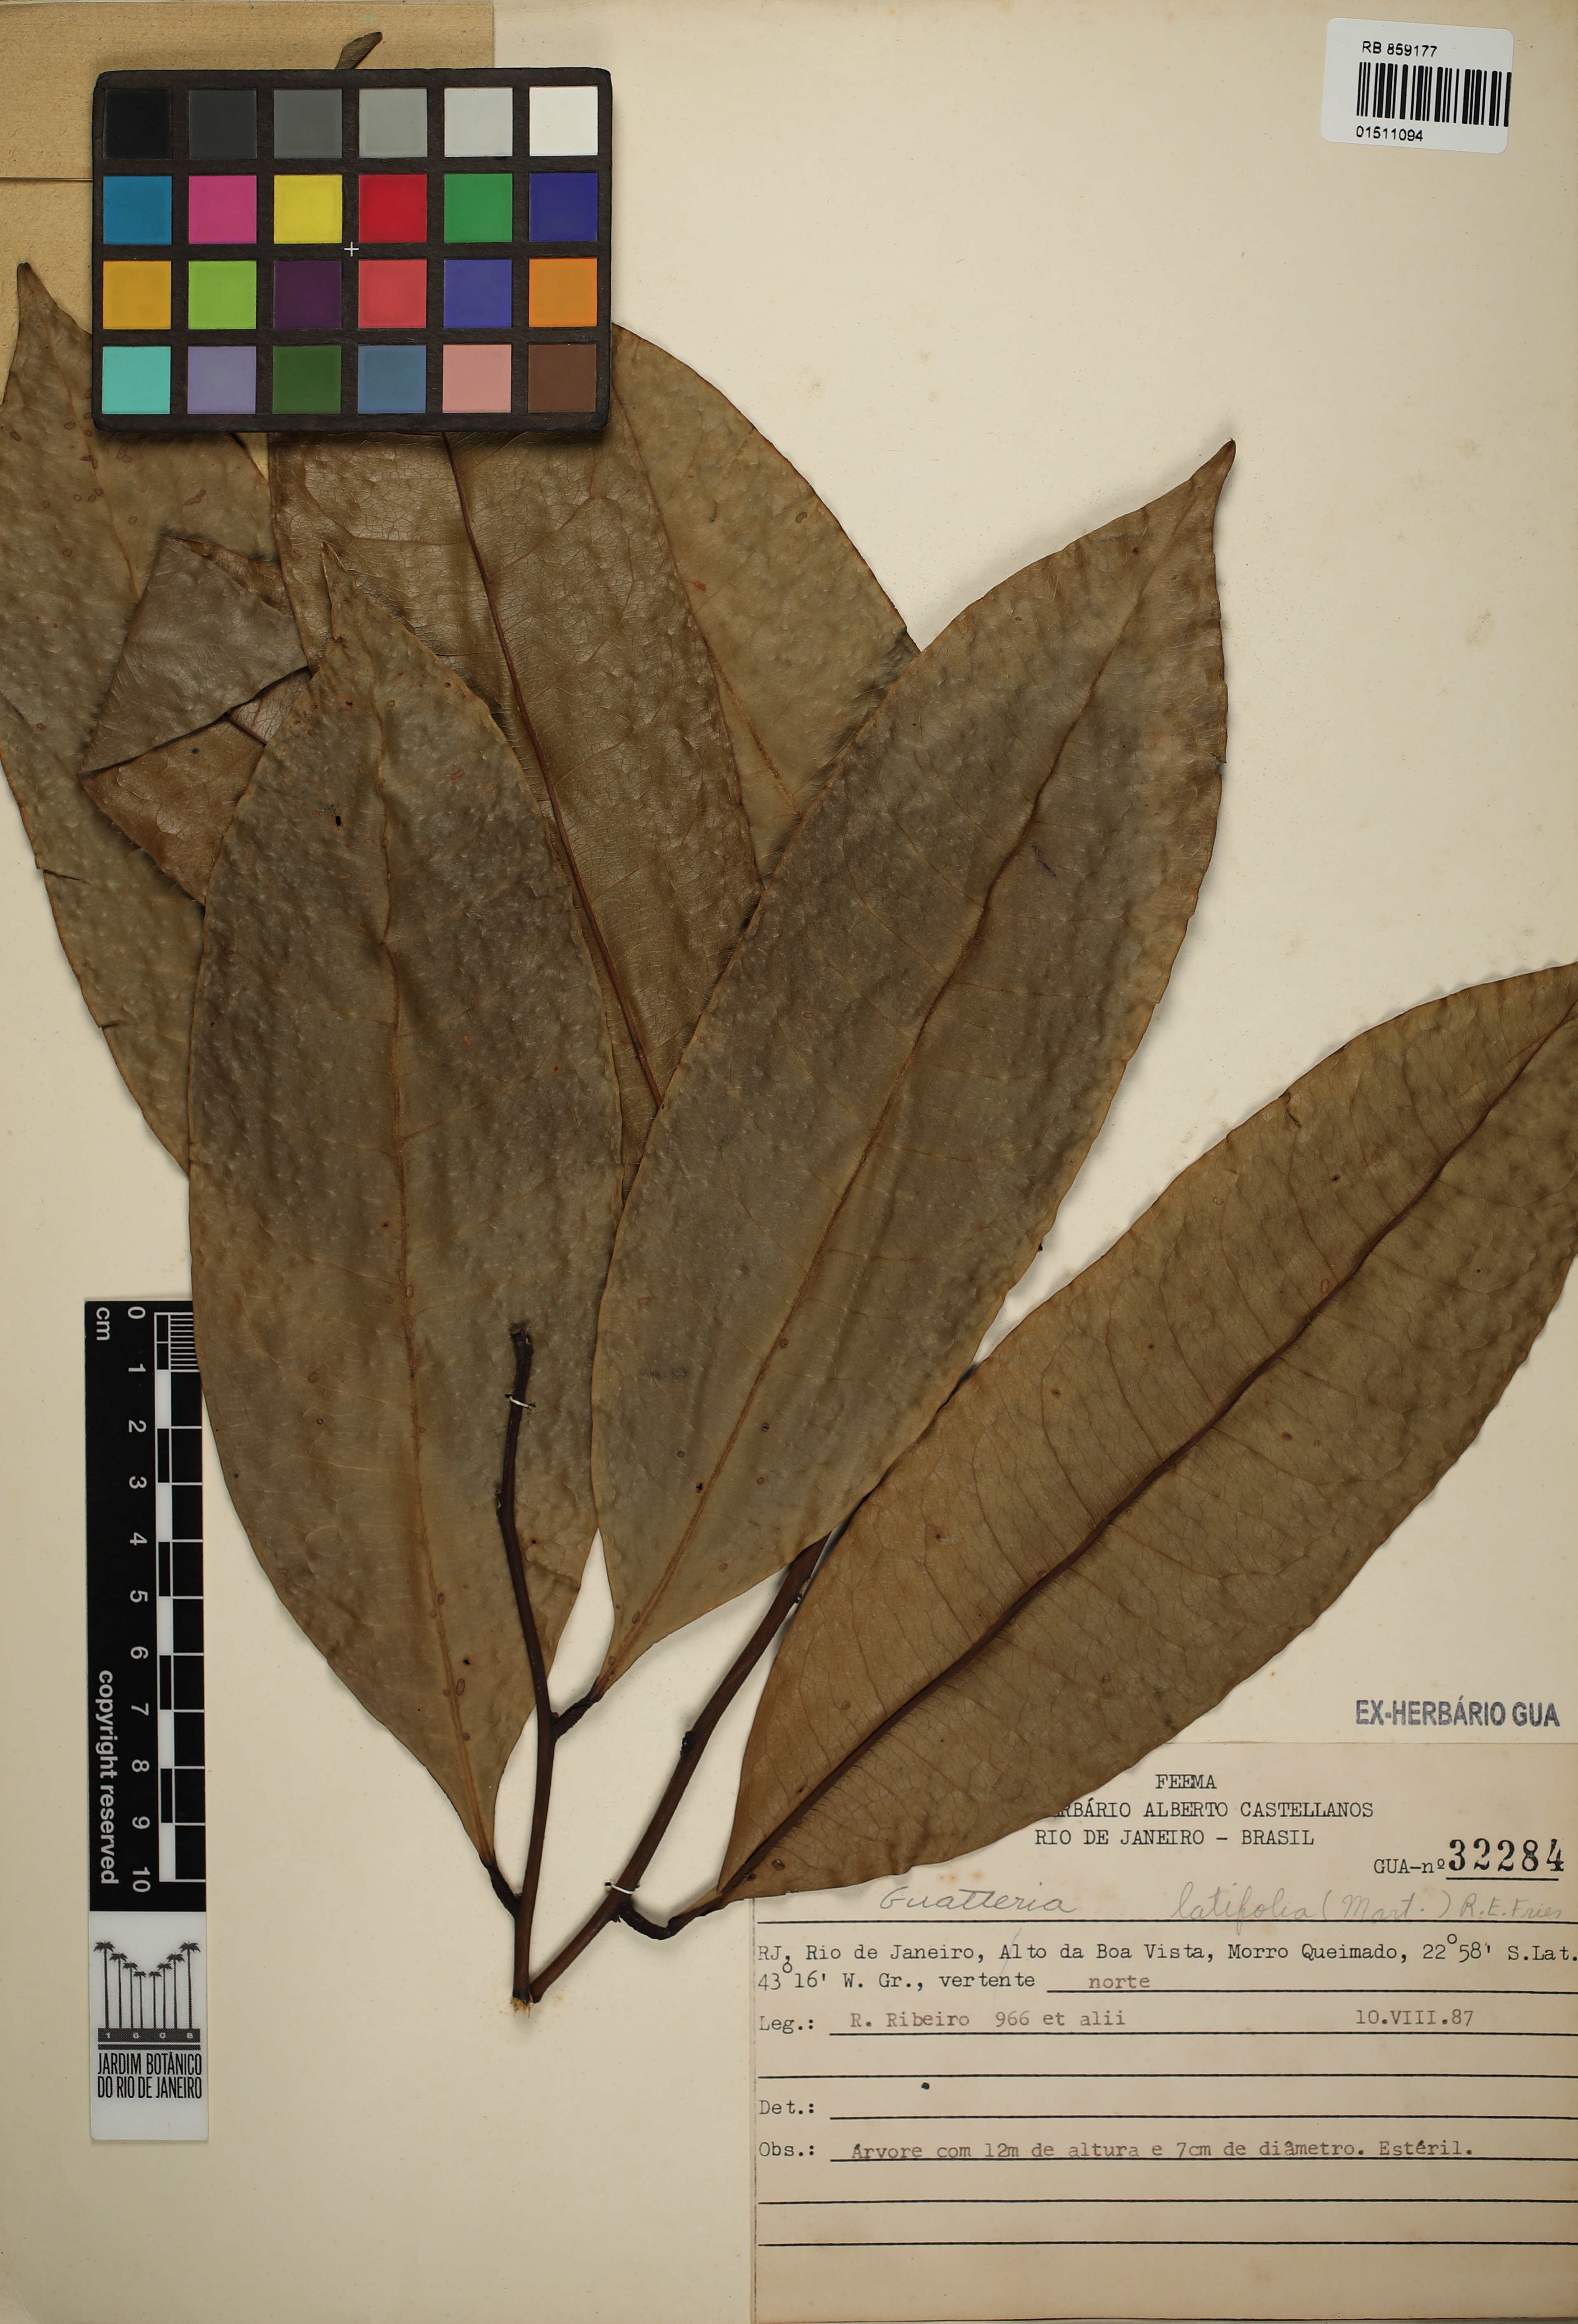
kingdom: Plantae
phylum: Tracheophyta
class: Magnoliopsida
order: Magnoliales
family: Annonaceae
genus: Guatteria
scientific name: Guatteria latifolia
